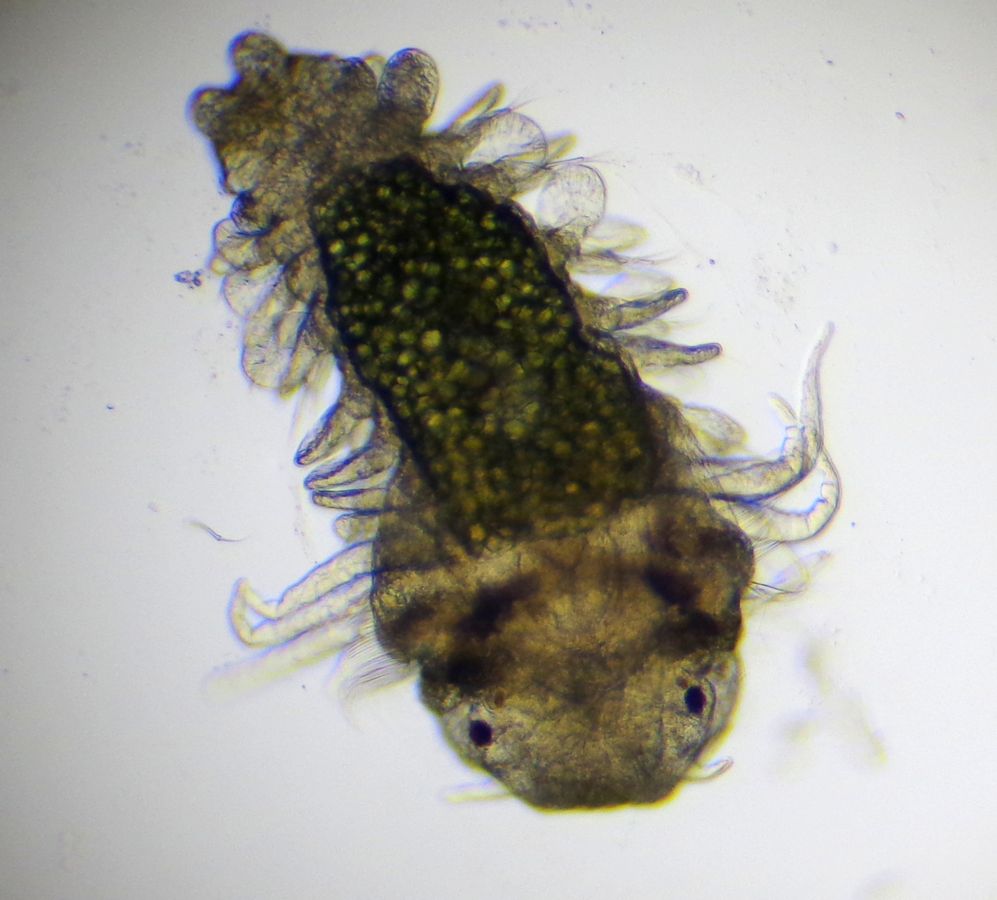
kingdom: Animalia
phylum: Annelida
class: Polychaeta
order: Phyllodocida
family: Phyllodocidae
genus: Phyllodoce
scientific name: Phyllodoce maculata
